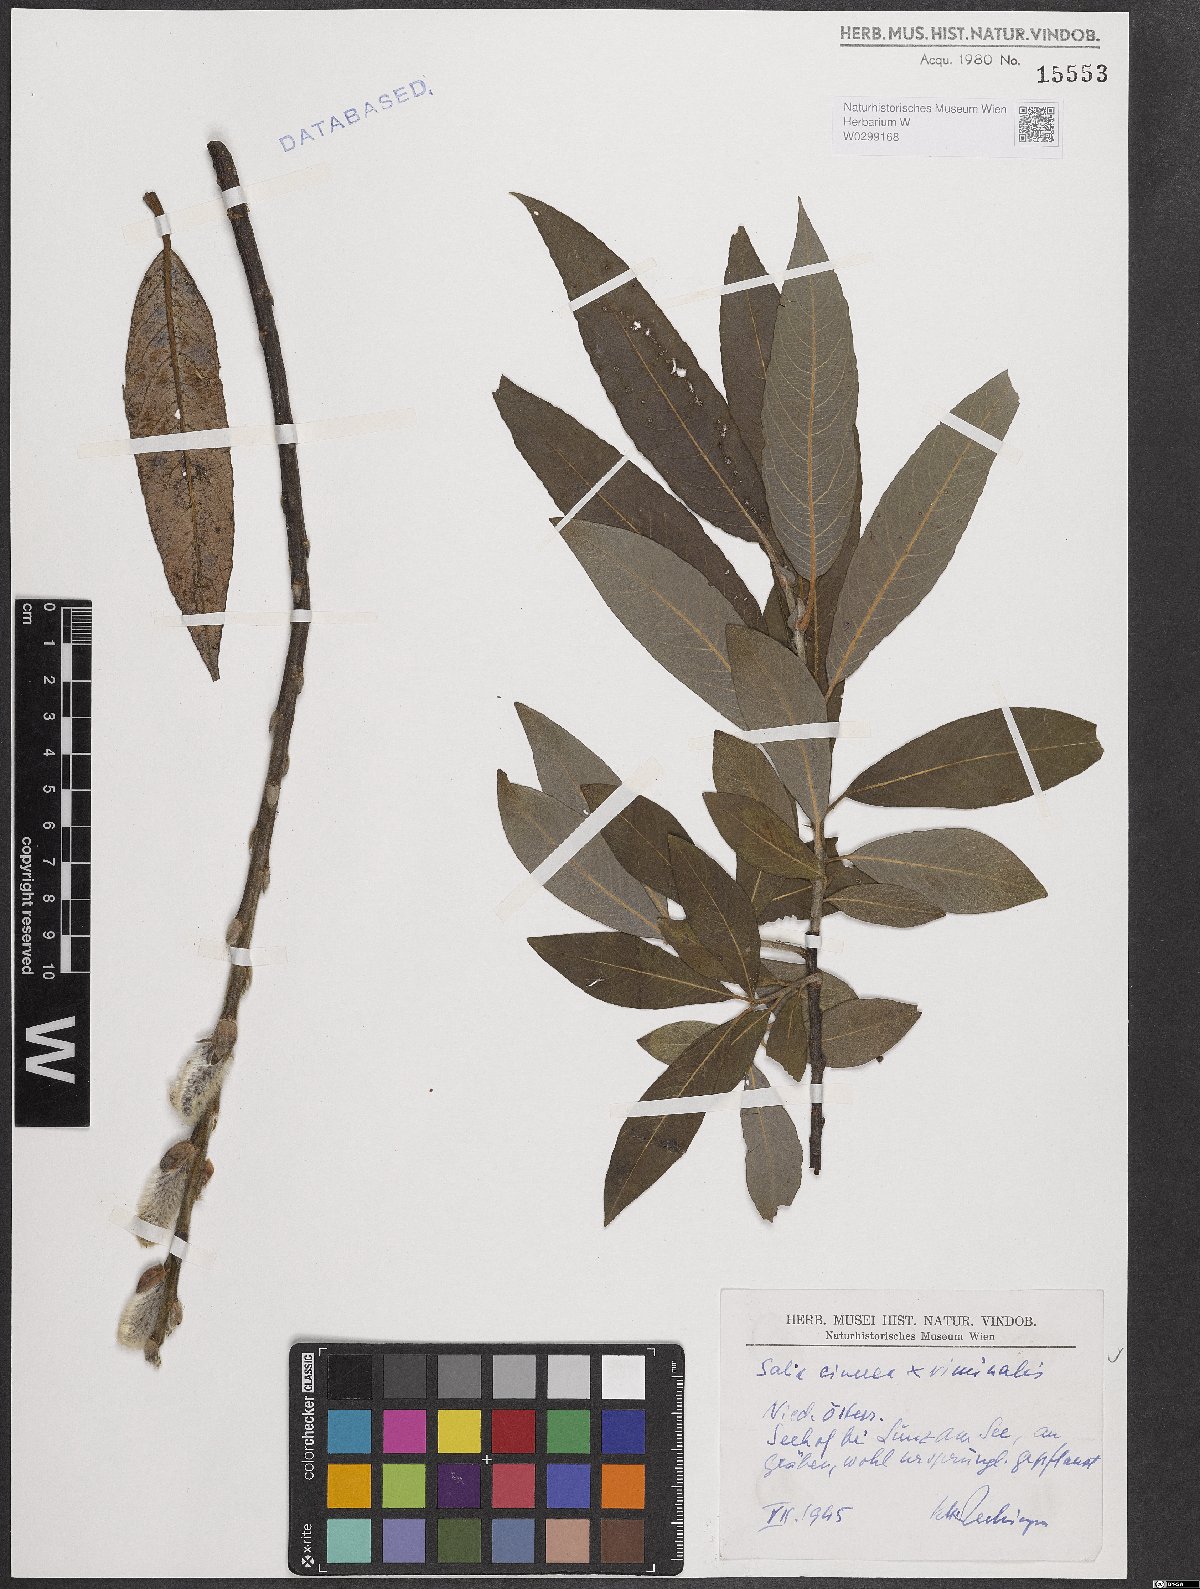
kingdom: Plantae
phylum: Tracheophyta
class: Magnoliopsida
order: Malpighiales
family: Salicaceae
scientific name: Salicaceae
